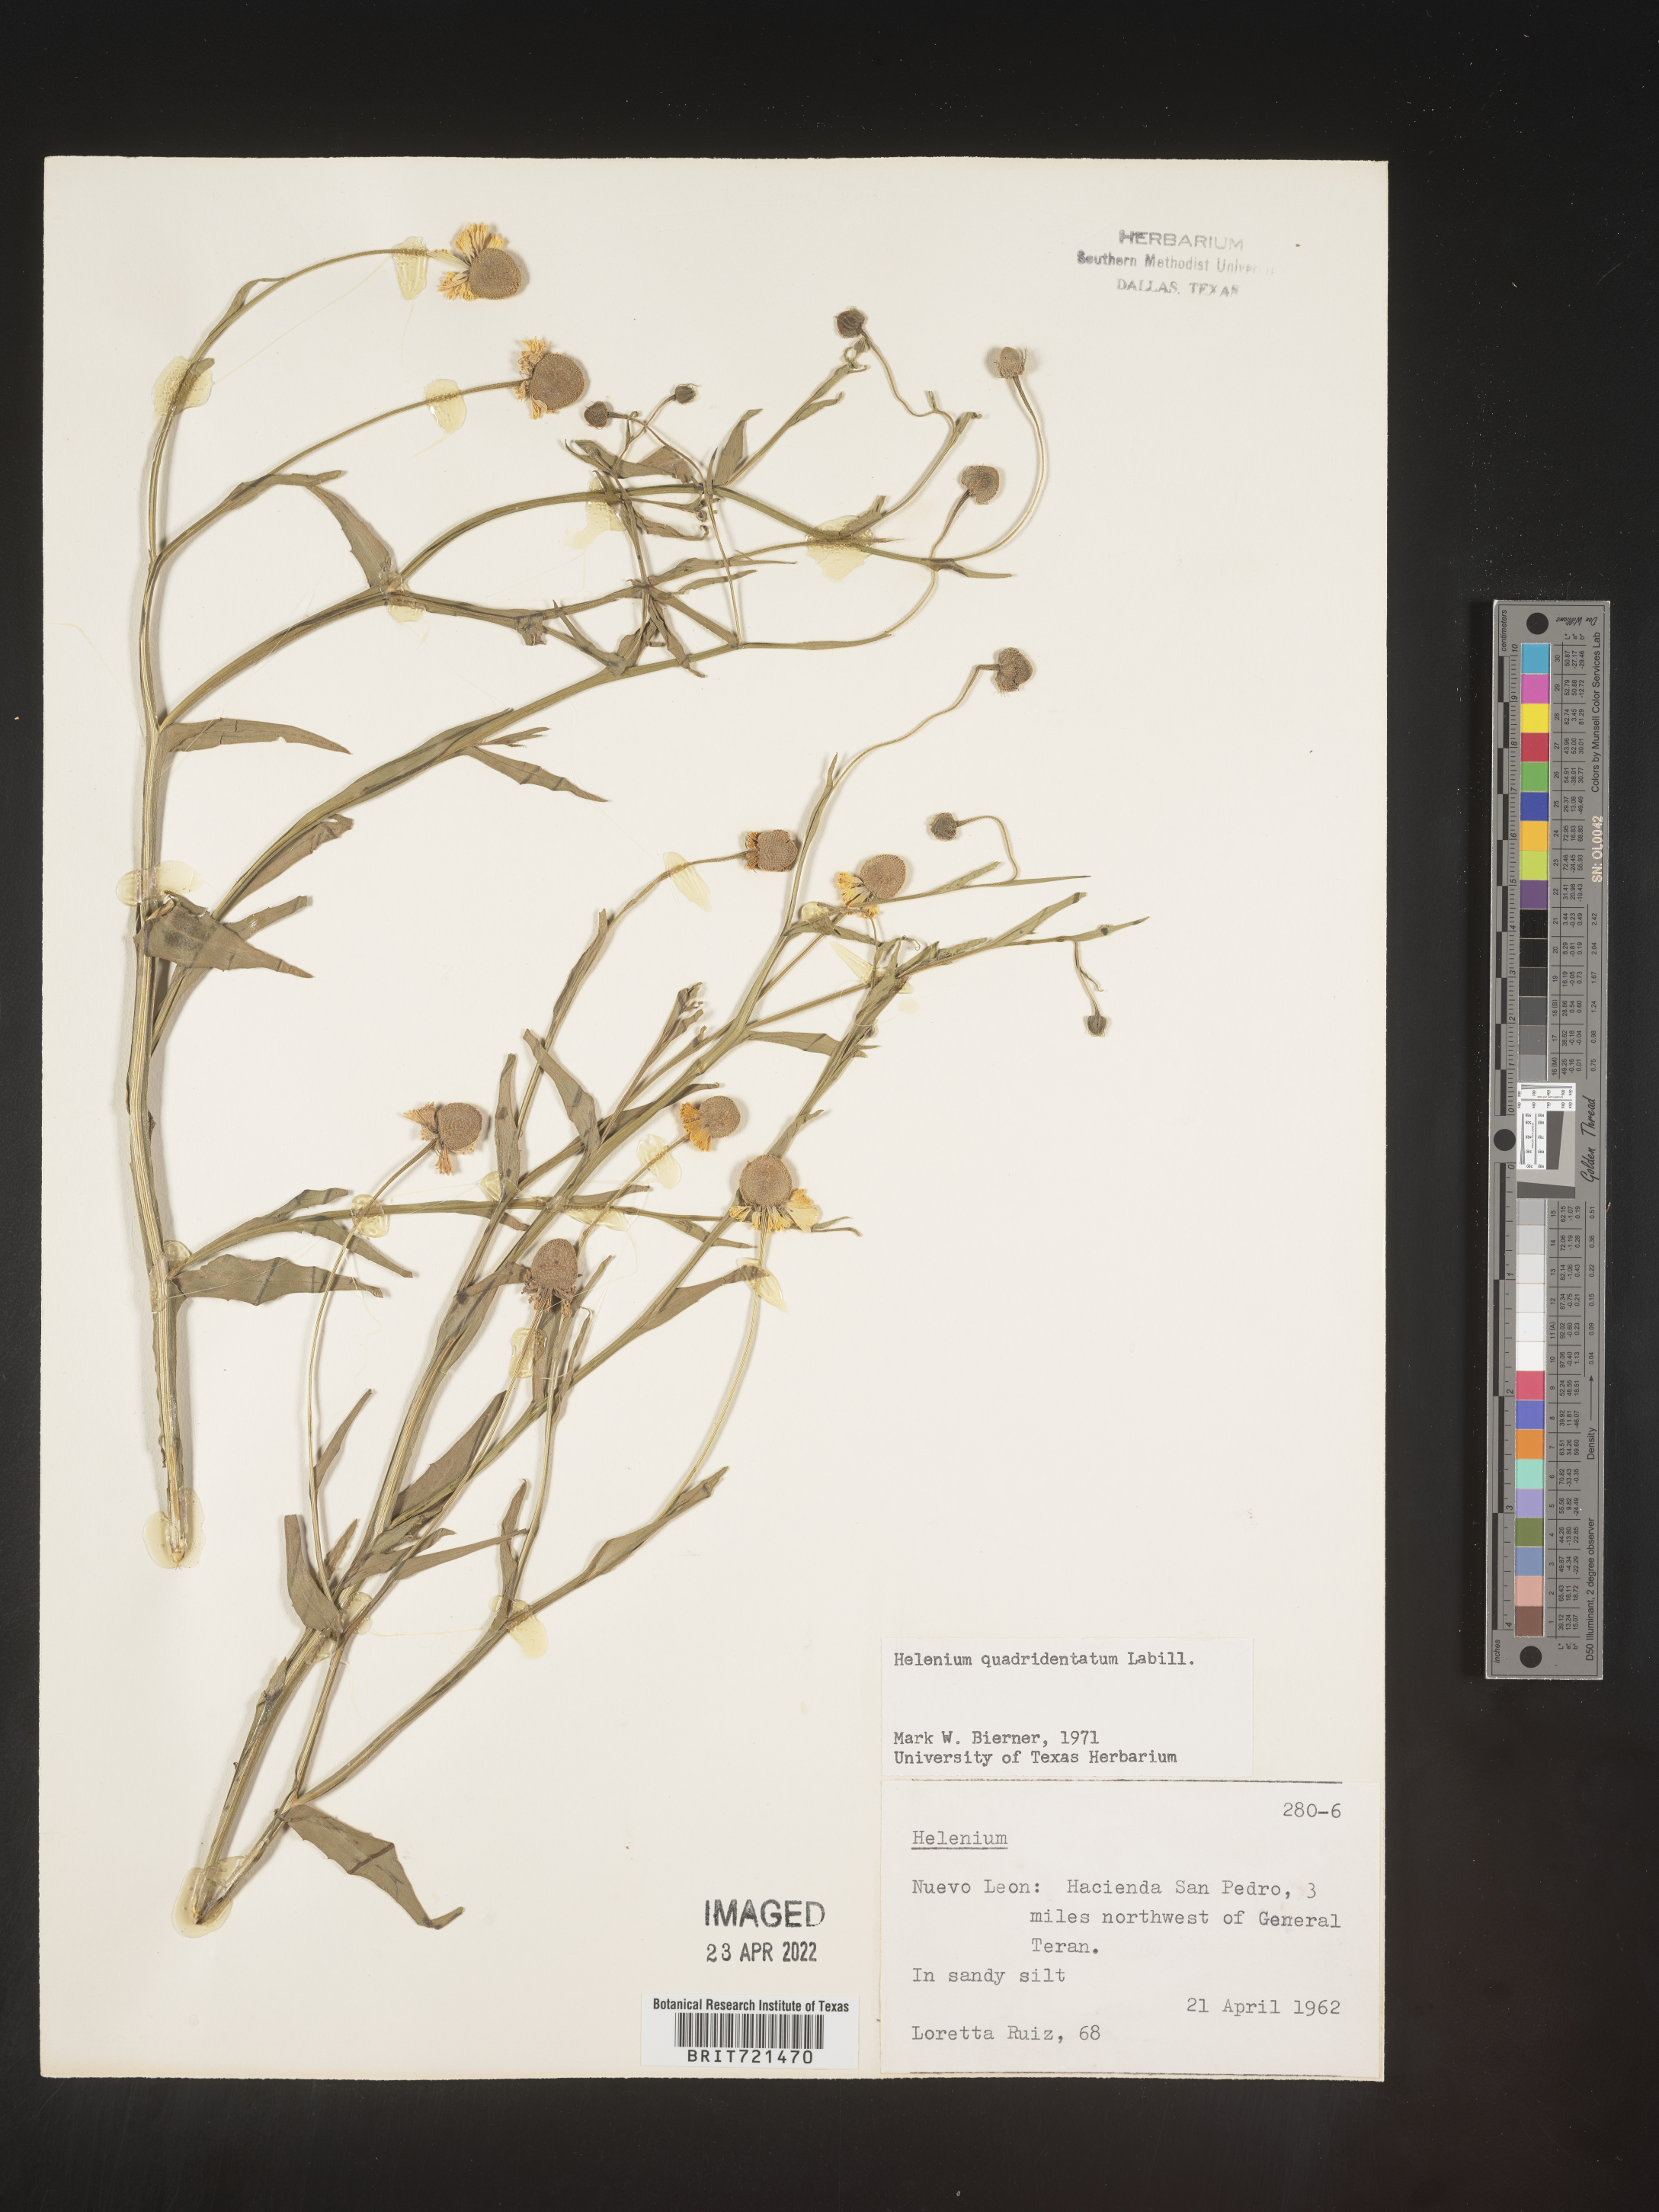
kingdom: Plantae
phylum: Tracheophyta
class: Magnoliopsida
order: Asterales
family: Asteraceae
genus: Helenium
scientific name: Helenium
